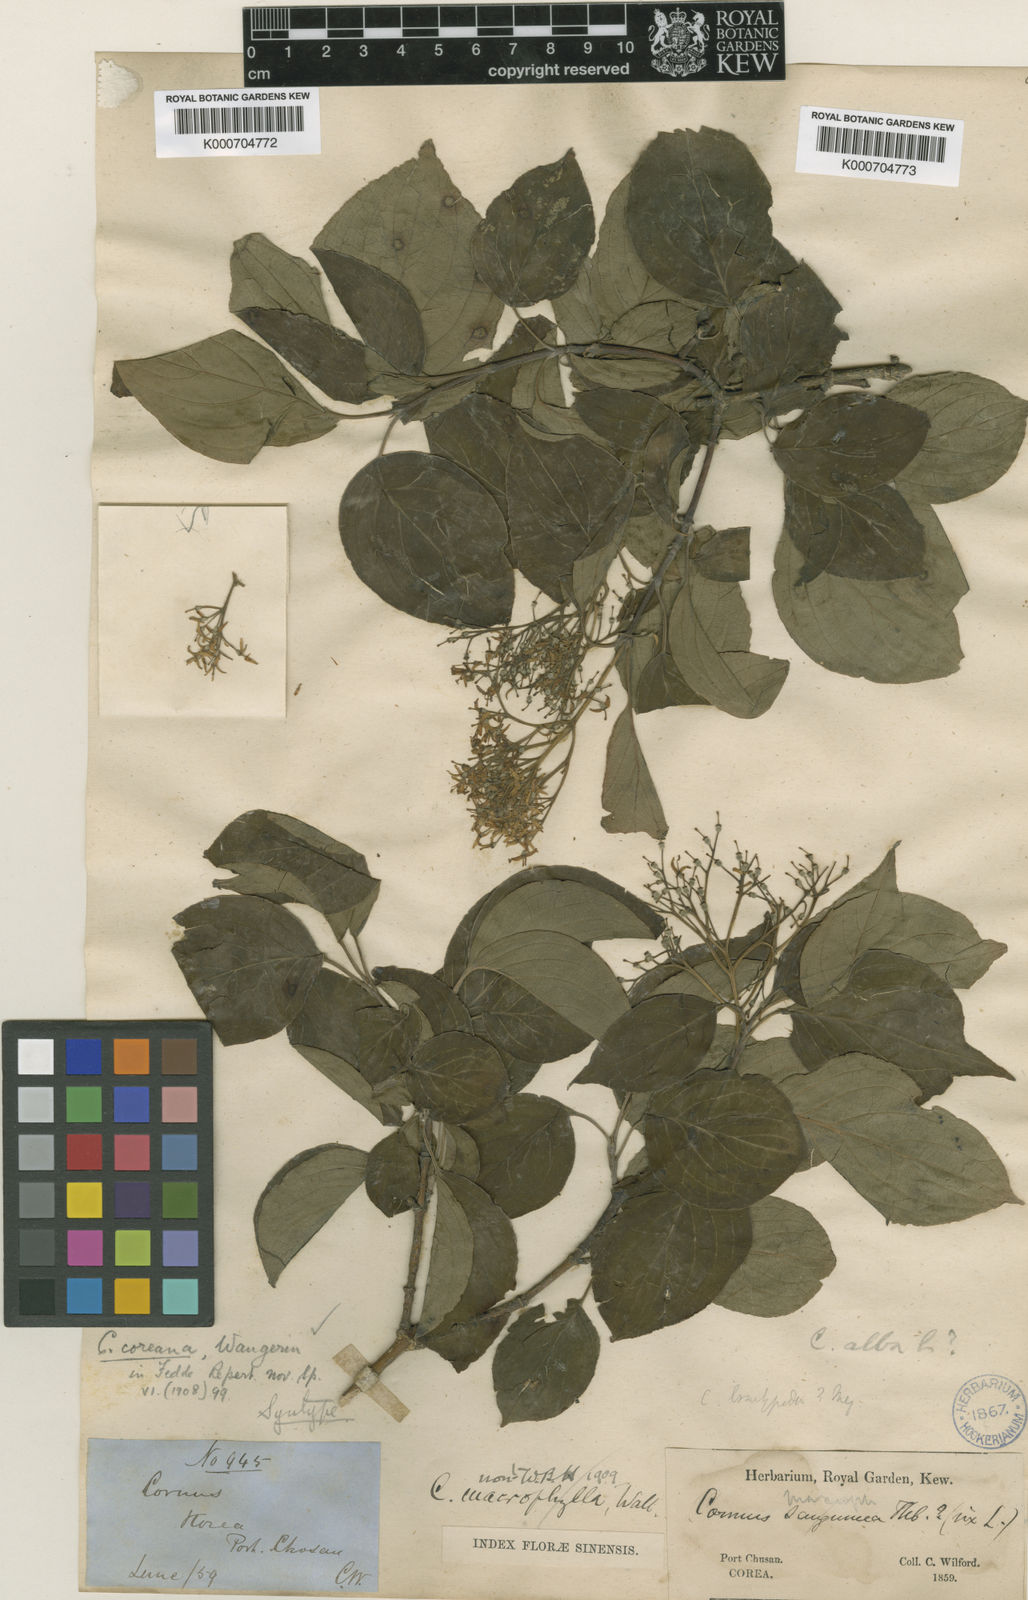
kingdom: Plantae
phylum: Tracheophyta
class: Magnoliopsida
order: Cornales
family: Cornaceae
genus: Cornus
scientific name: Cornus walteri
